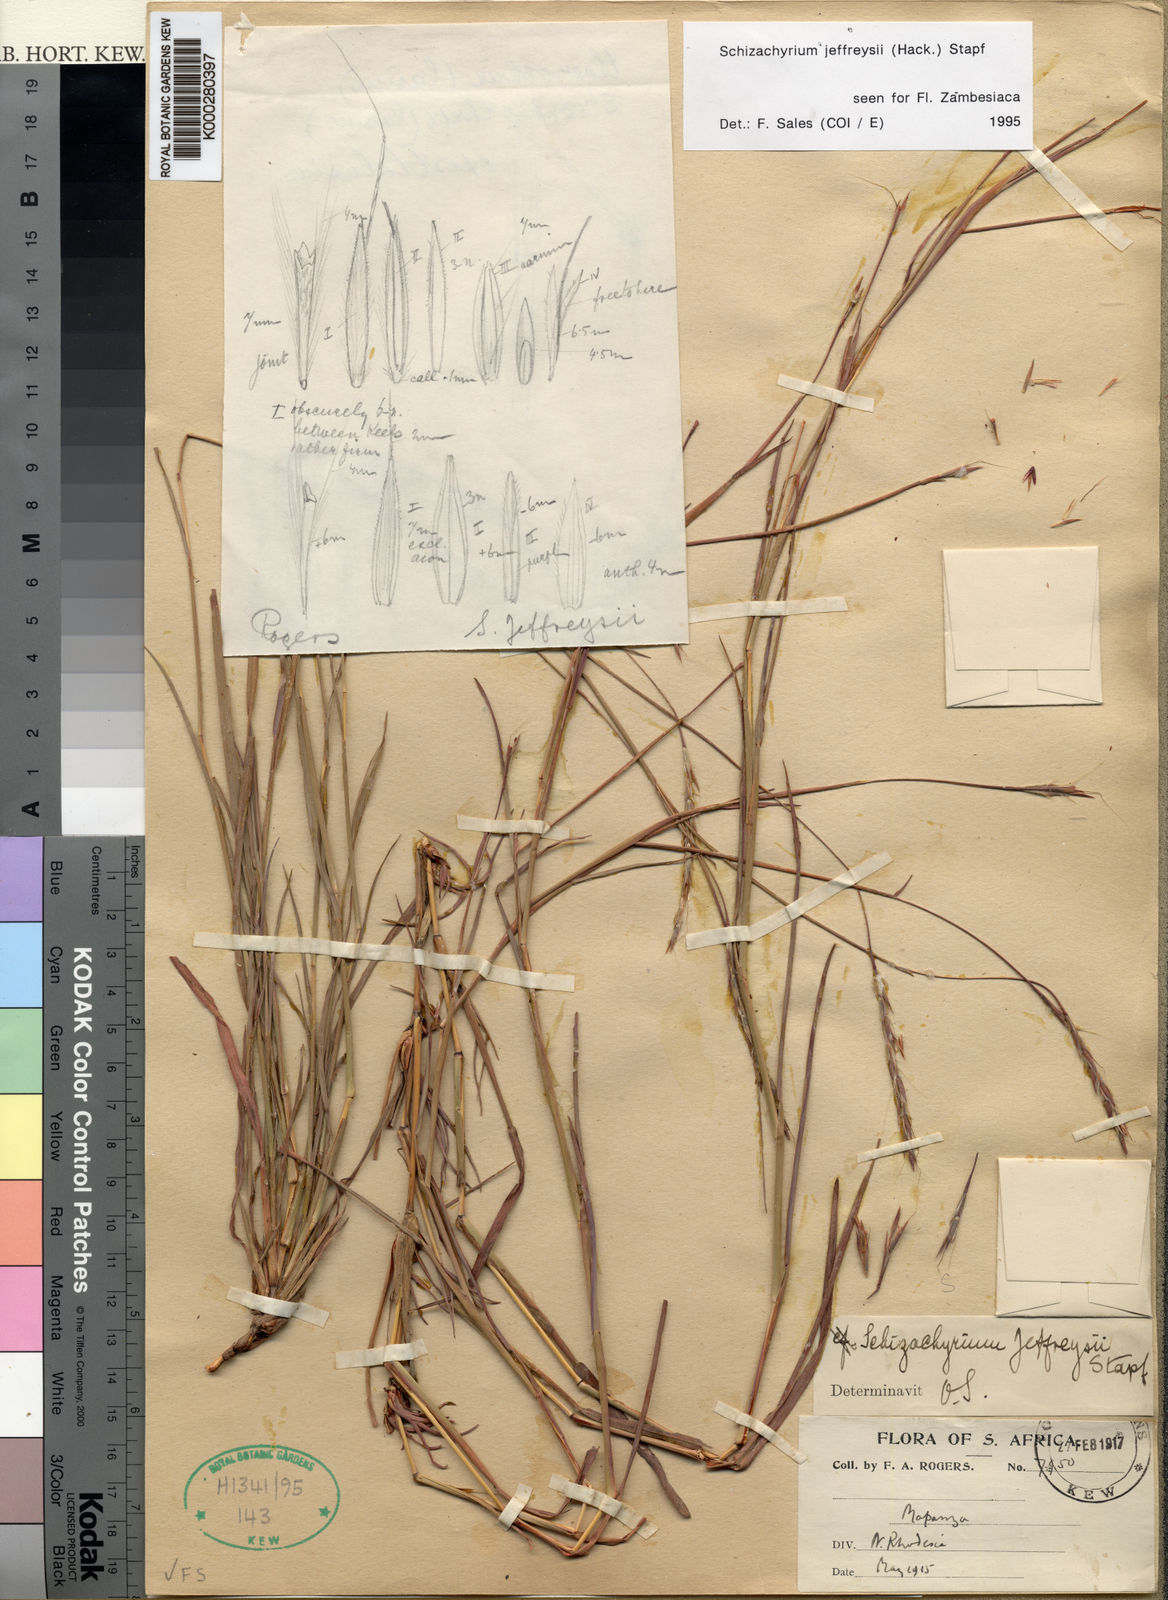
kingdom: Plantae
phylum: Tracheophyta
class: Liliopsida
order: Poales
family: Poaceae
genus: Schizachyrium
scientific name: Schizachyrium jeffreysii
